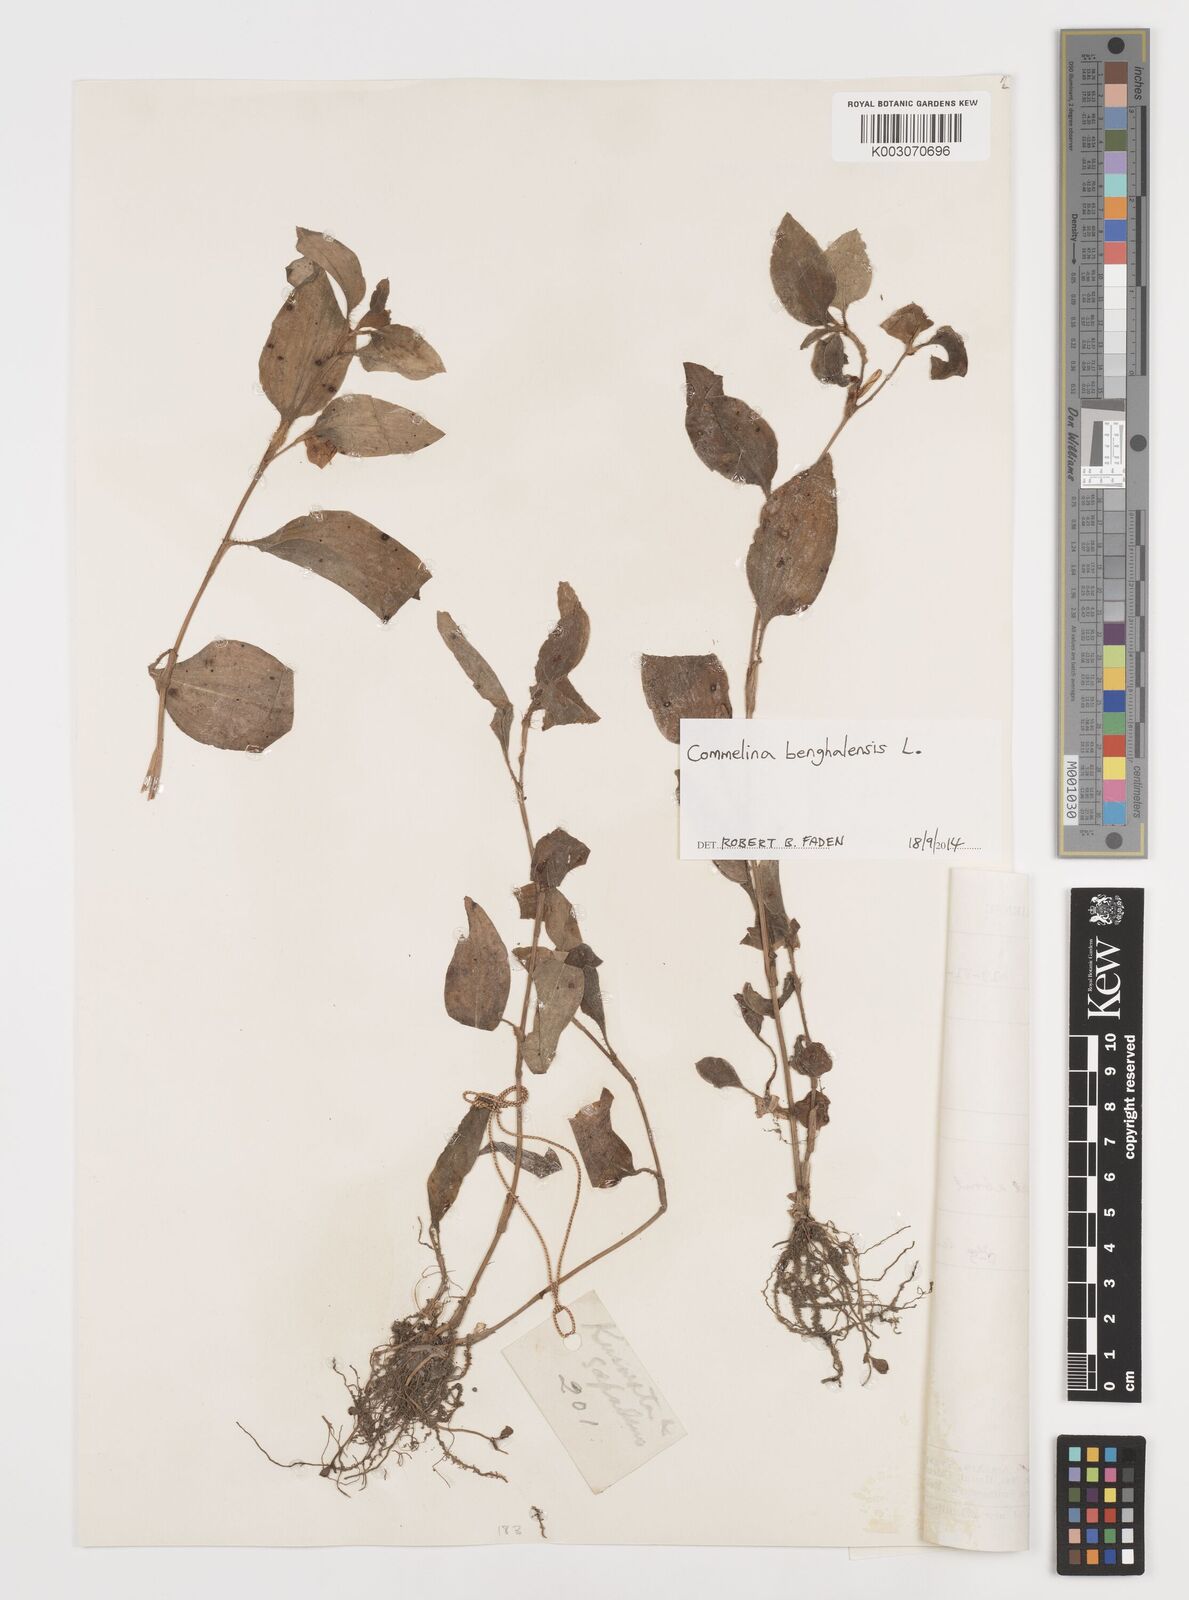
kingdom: Plantae
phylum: Tracheophyta
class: Liliopsida
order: Commelinales
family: Commelinaceae
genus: Commelina
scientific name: Commelina benghalensis
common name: Jio
